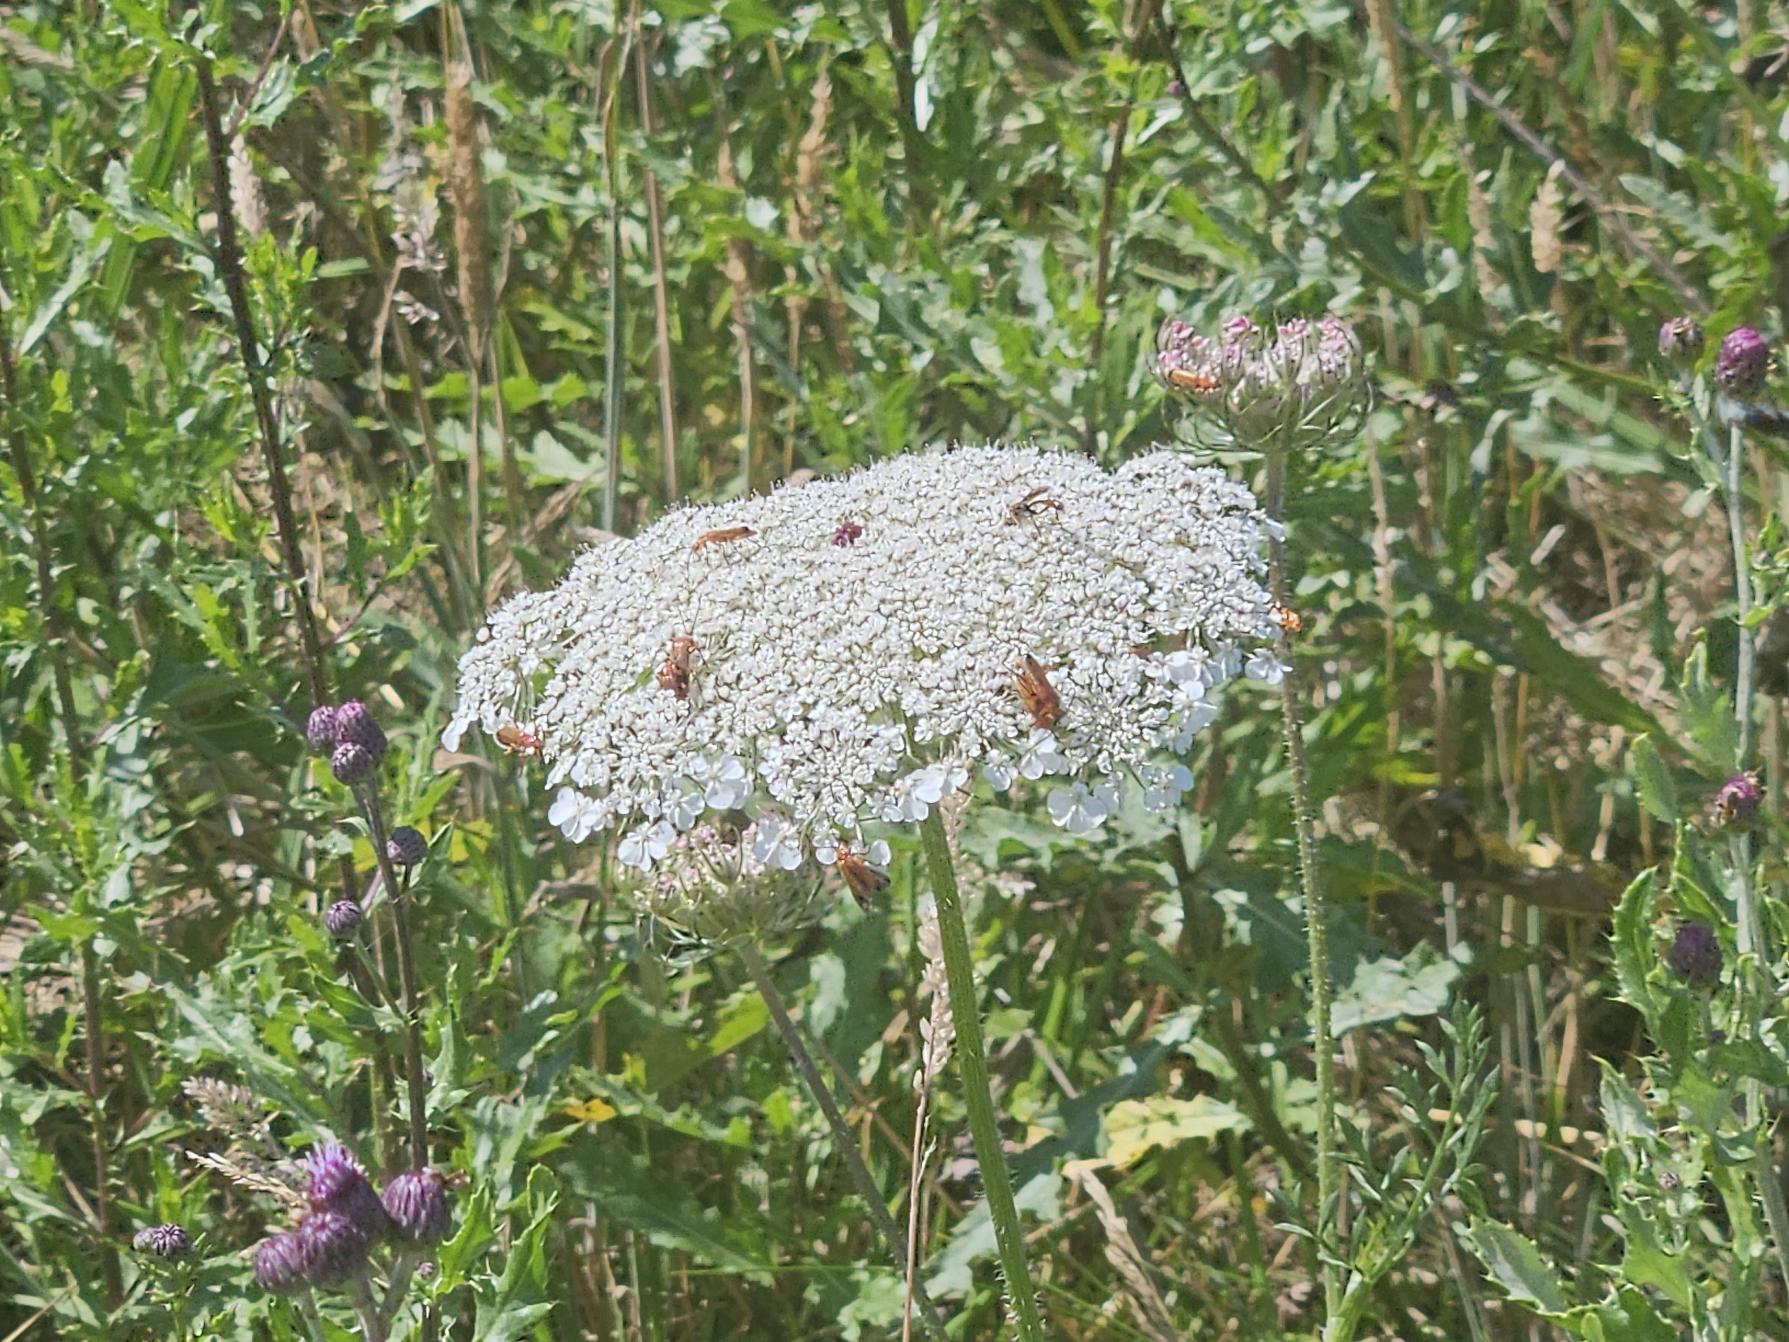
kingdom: Plantae
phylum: Tracheophyta
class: Magnoliopsida
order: Apiales
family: Apiaceae
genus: Daucus
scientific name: Daucus carota
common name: Gulerod
